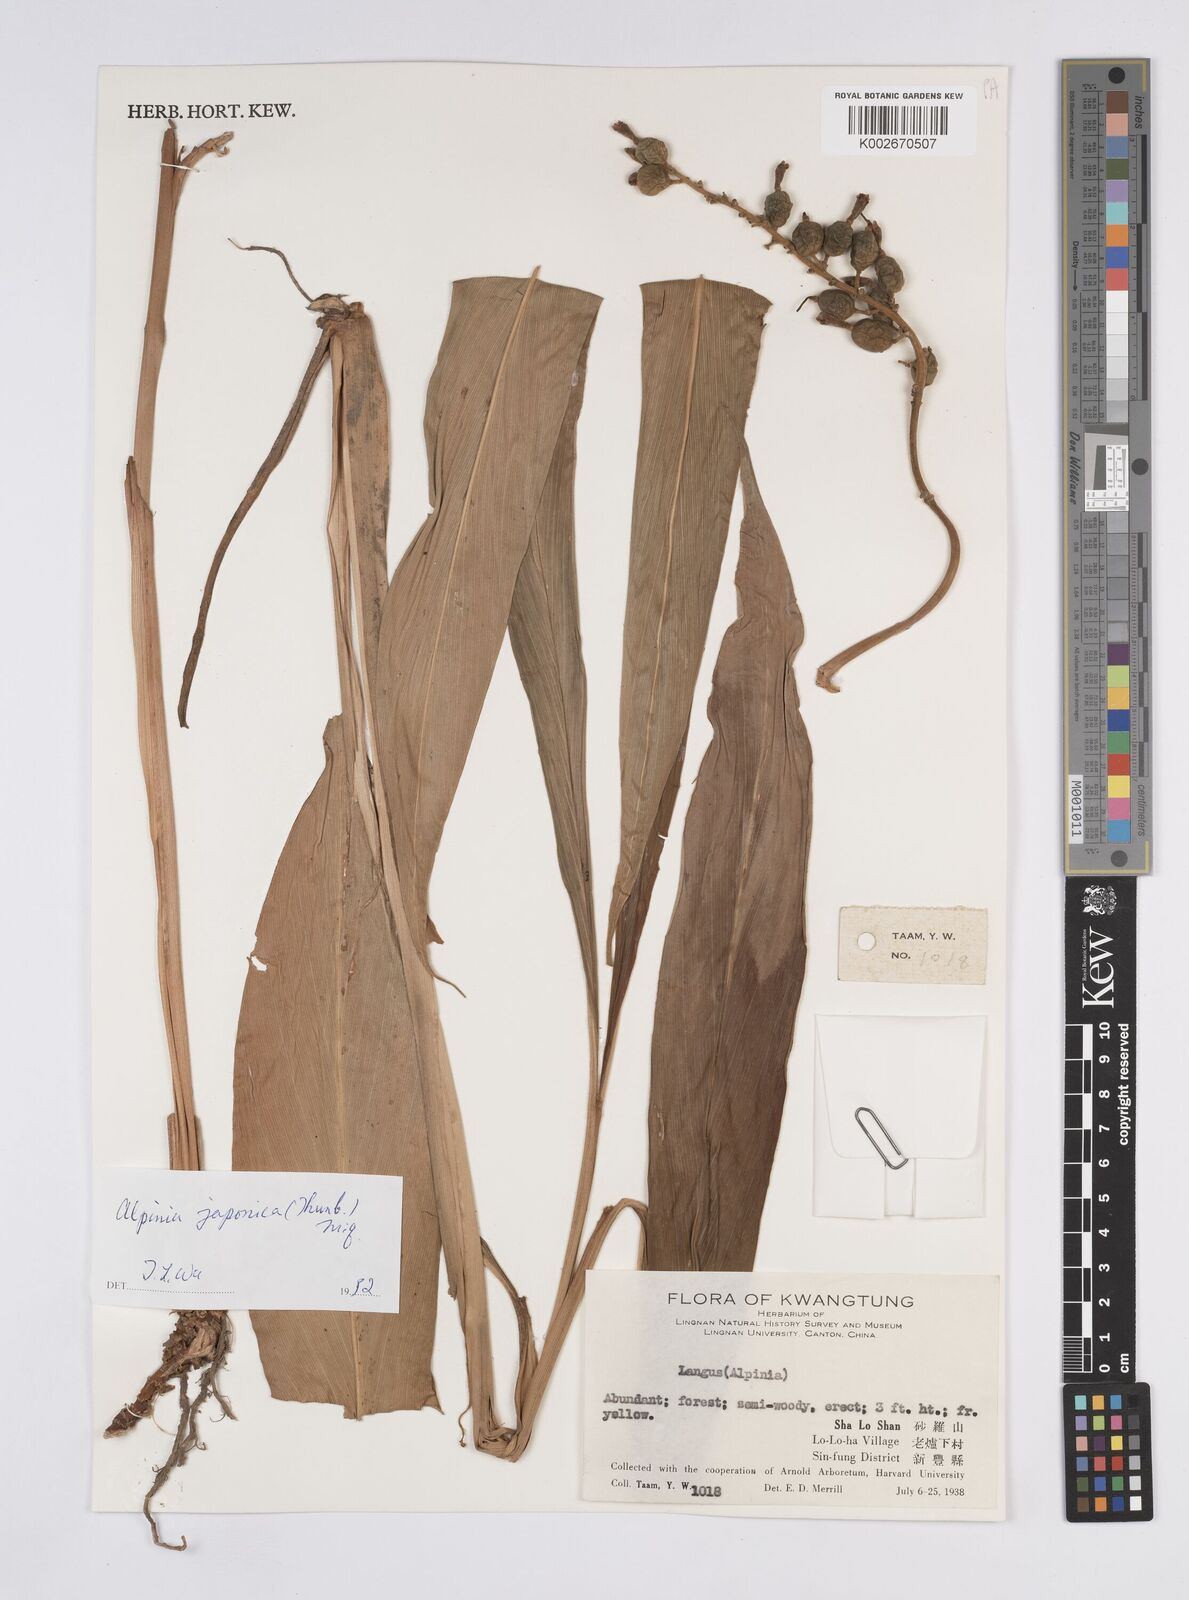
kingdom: Plantae
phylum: Tracheophyta
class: Liliopsida
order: Zingiberales
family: Zingiberaceae
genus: Alpinia
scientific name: Alpinia japonica
